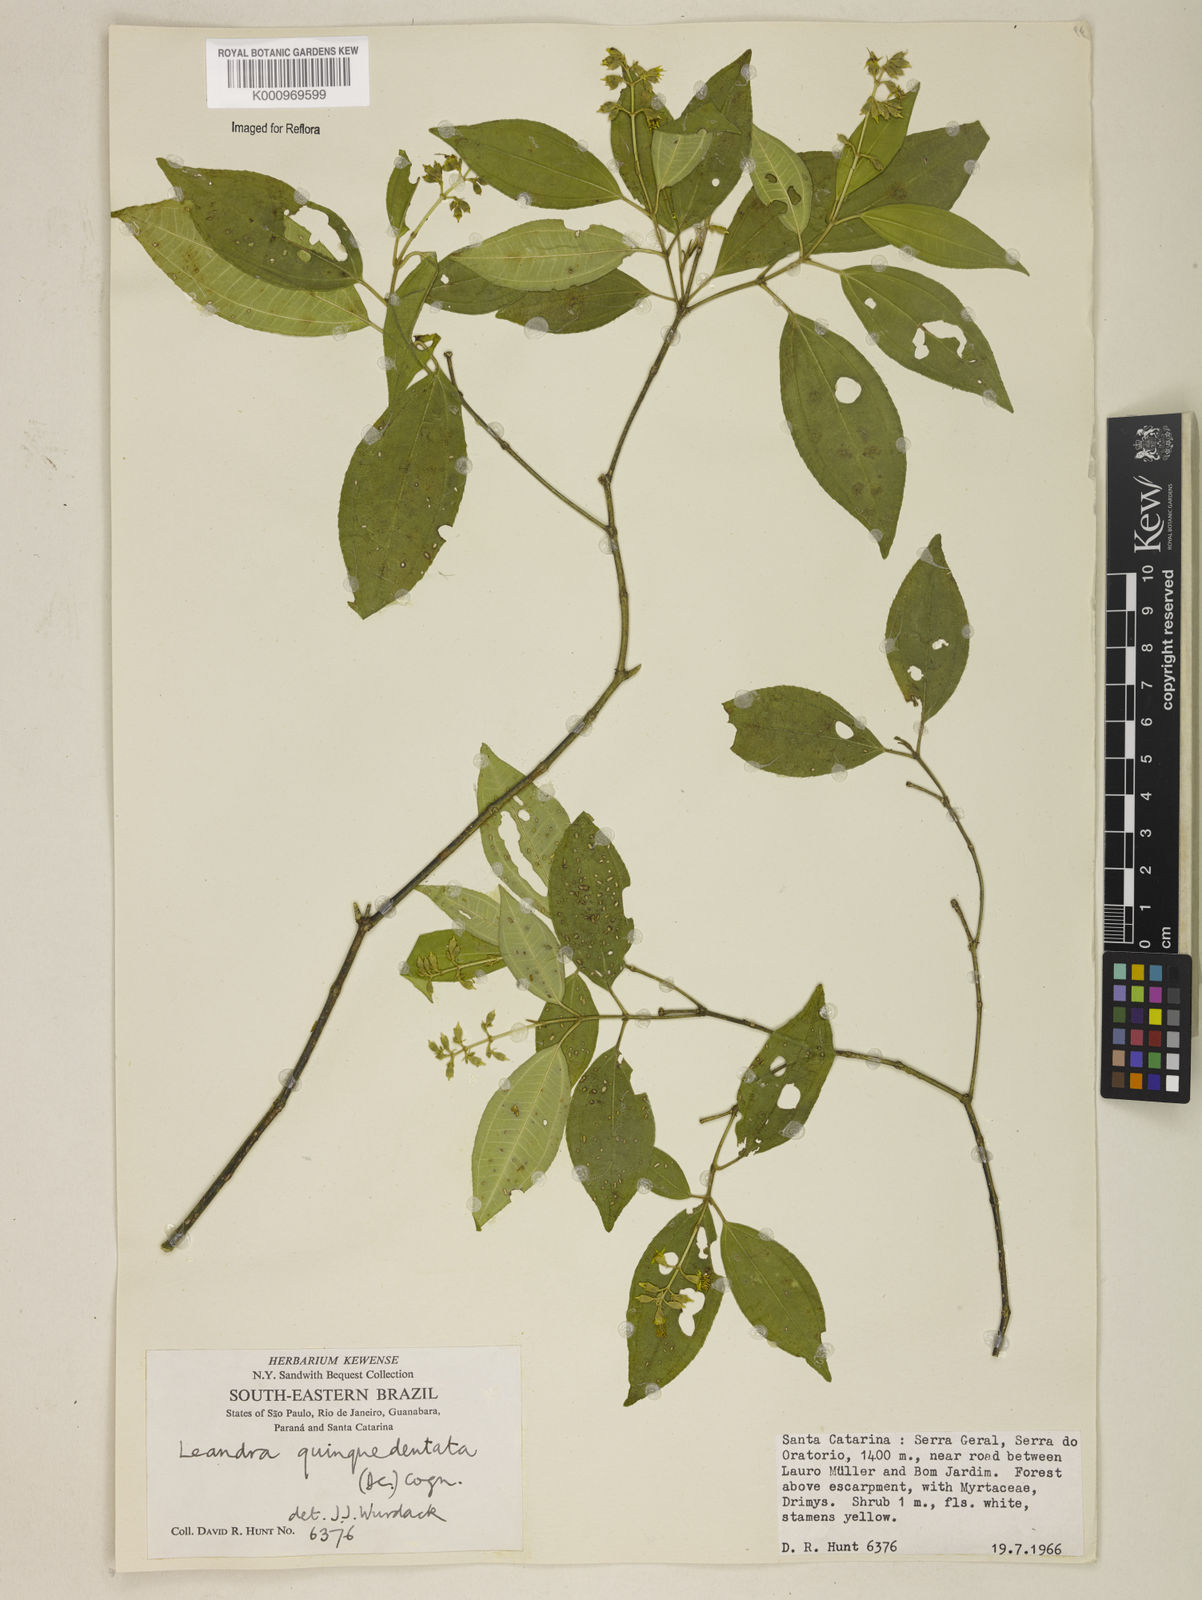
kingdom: Plantae
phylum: Tracheophyta
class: Magnoliopsida
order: Myrtales
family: Melastomataceae
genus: Miconia
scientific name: Miconia quinquedentata
